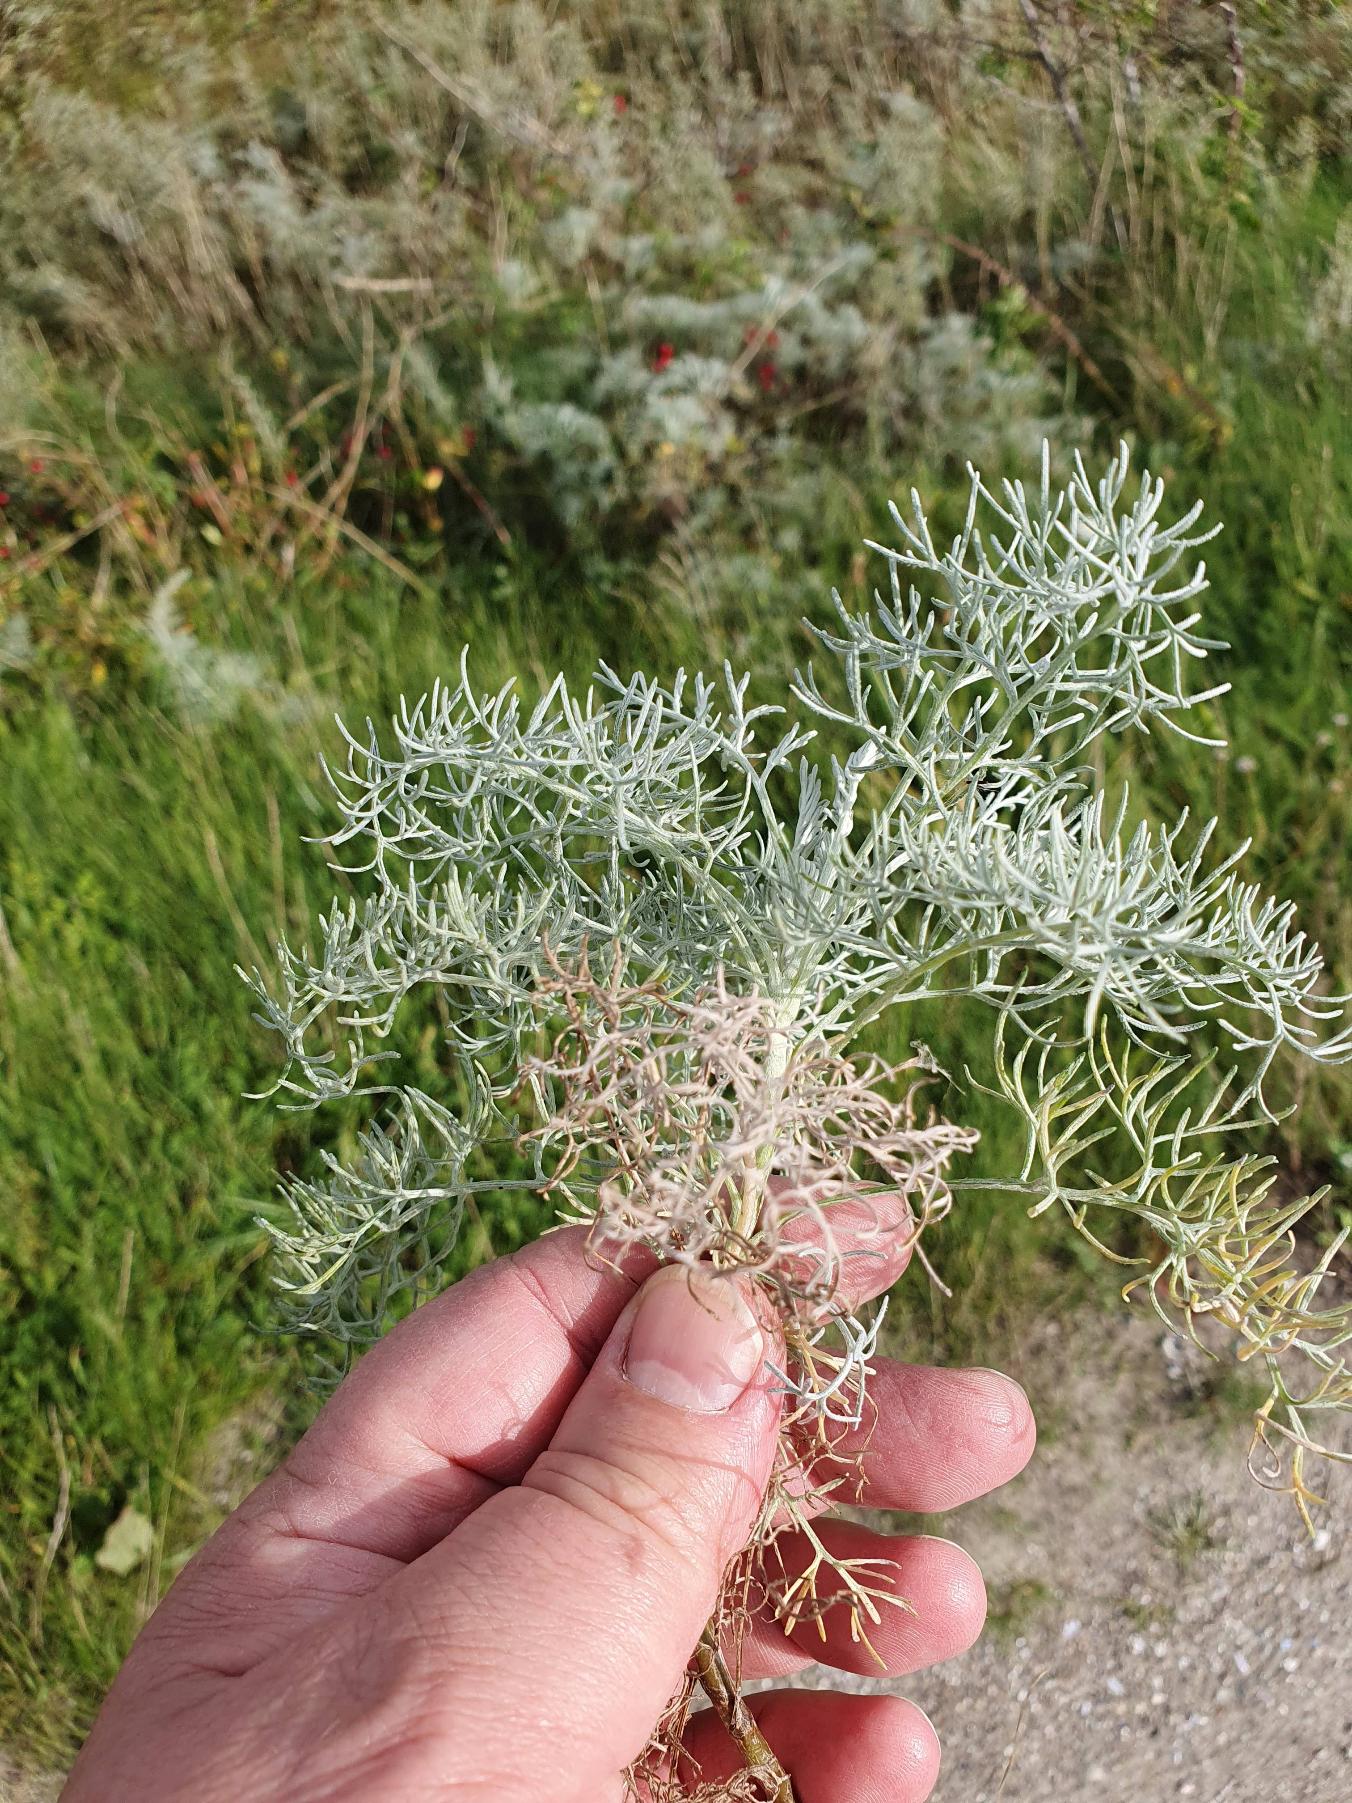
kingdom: Plantae
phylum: Tracheophyta
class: Magnoliopsida
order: Asterales
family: Asteraceae
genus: Artemisia
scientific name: Artemisia maritima
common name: Strandmalurt
